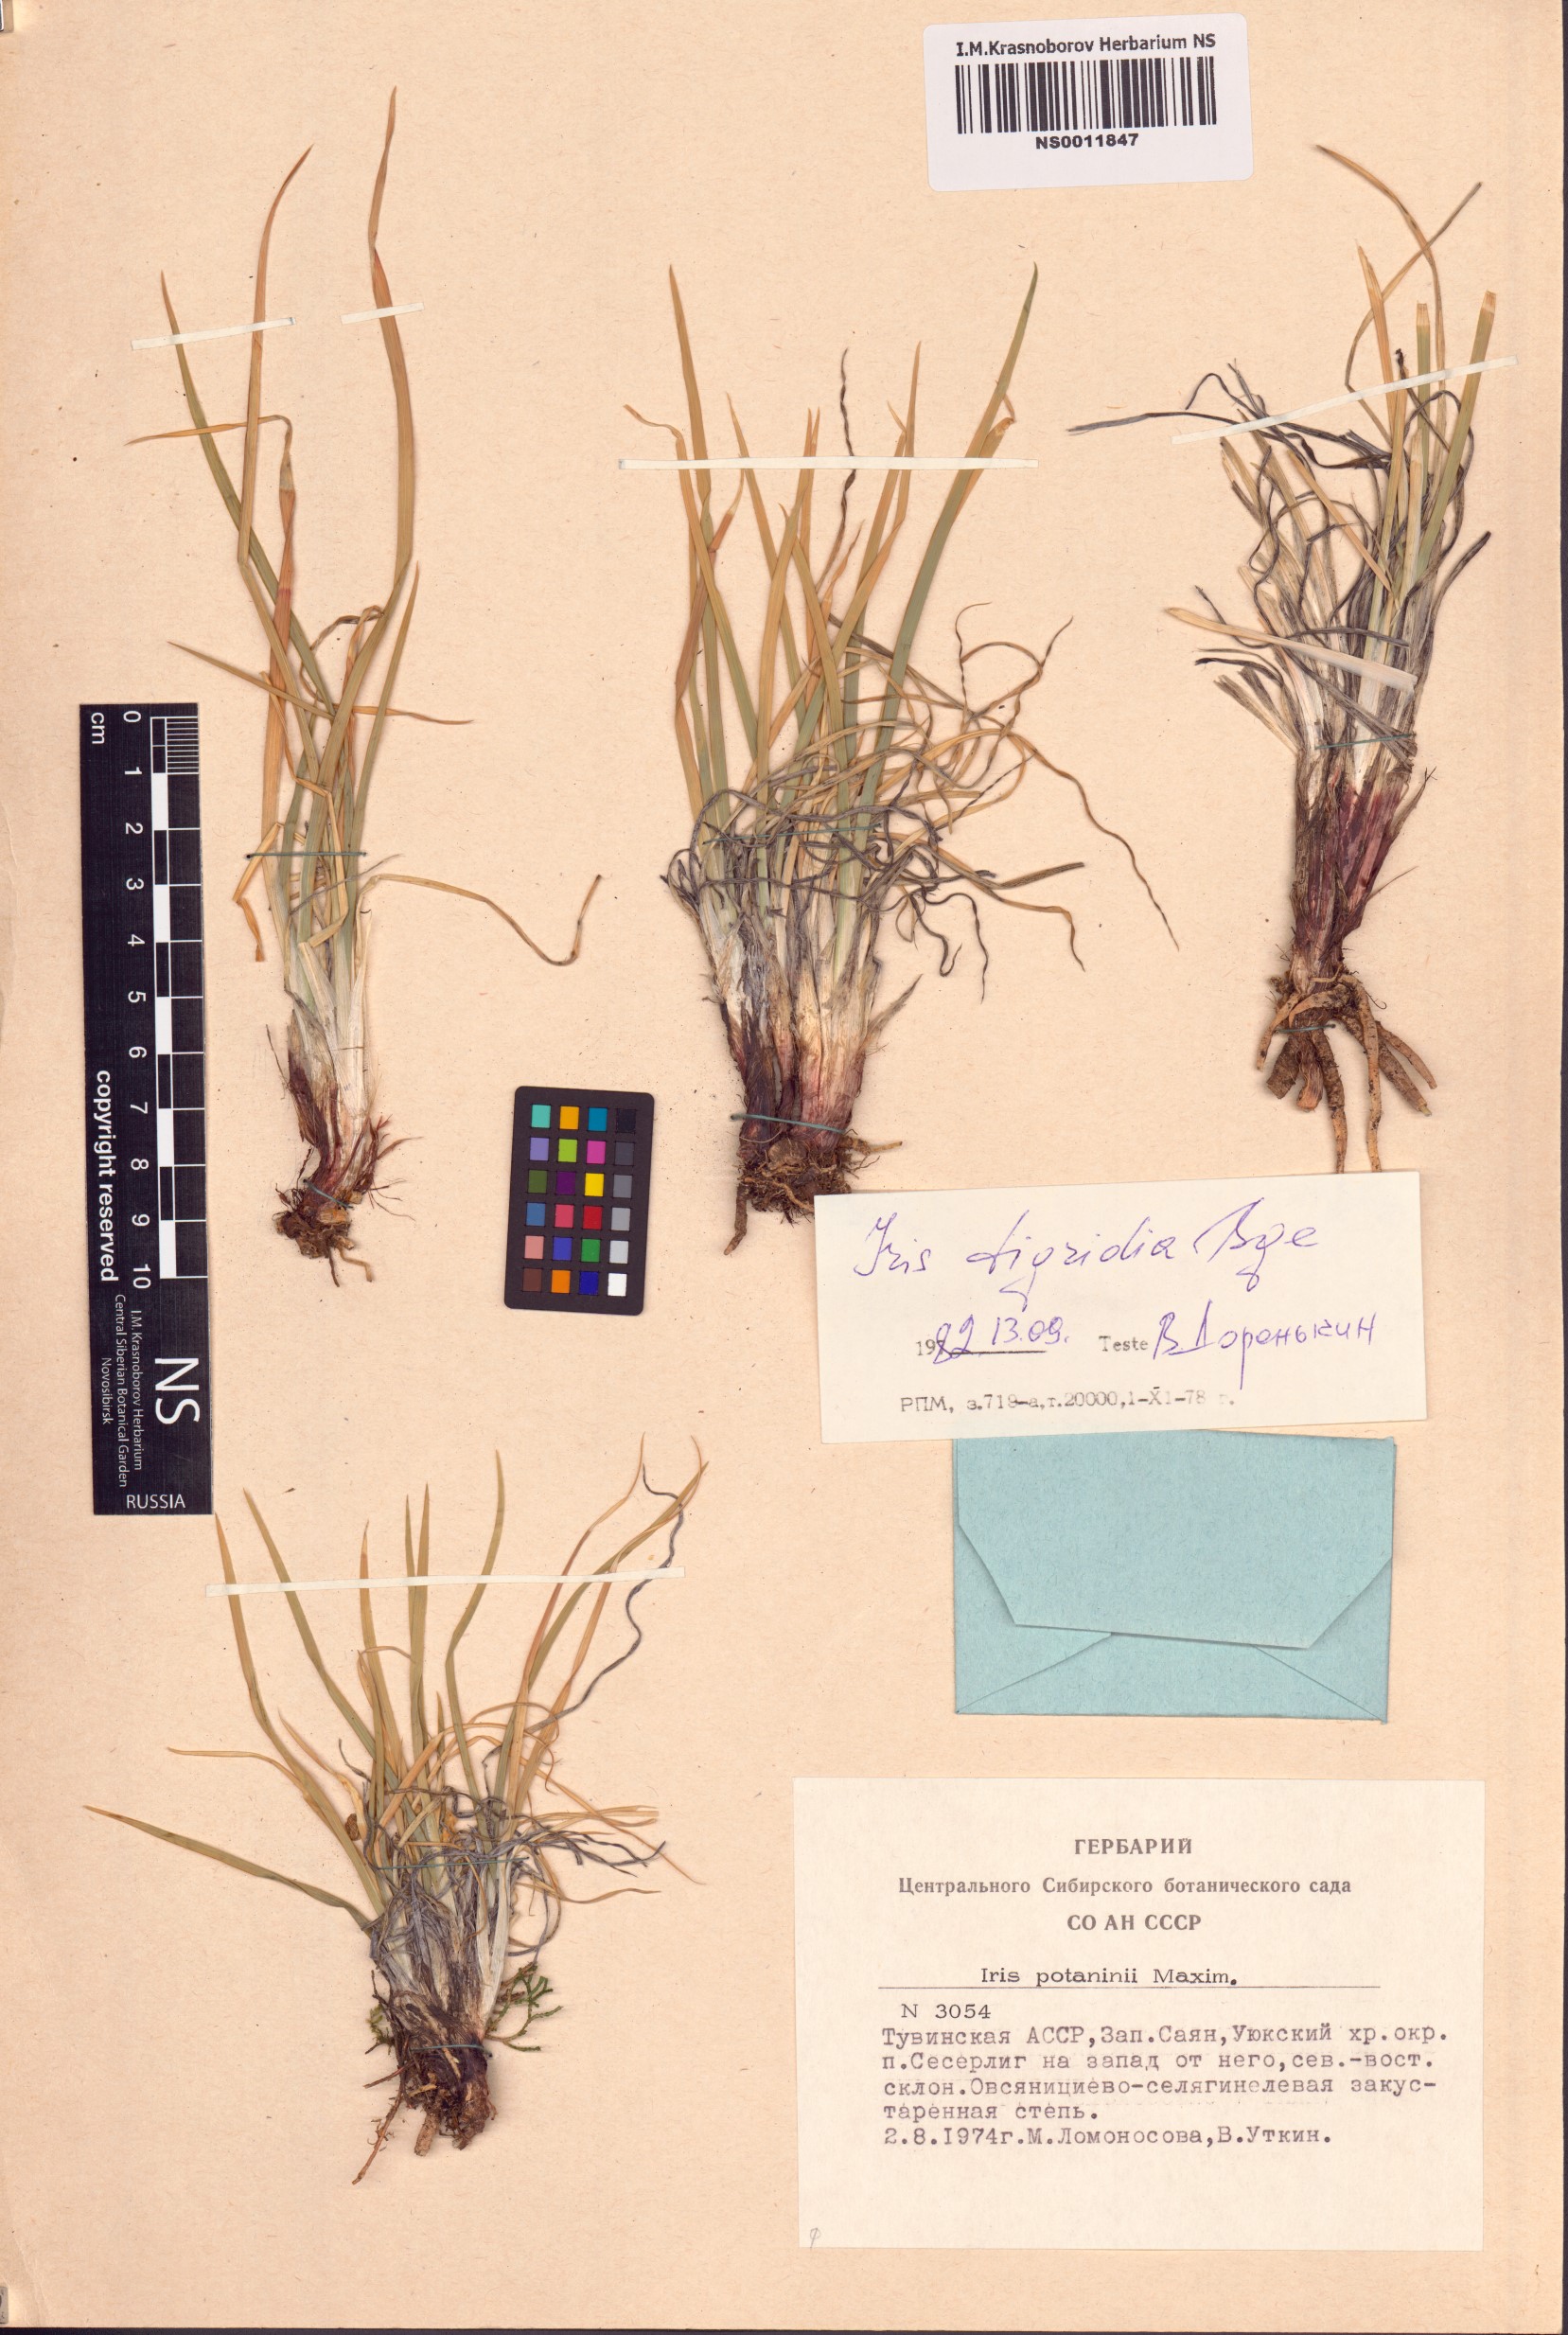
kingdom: Plantae
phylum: Tracheophyta
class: Liliopsida
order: Asparagales
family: Iridaceae
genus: Iris
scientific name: Iris tigridia
